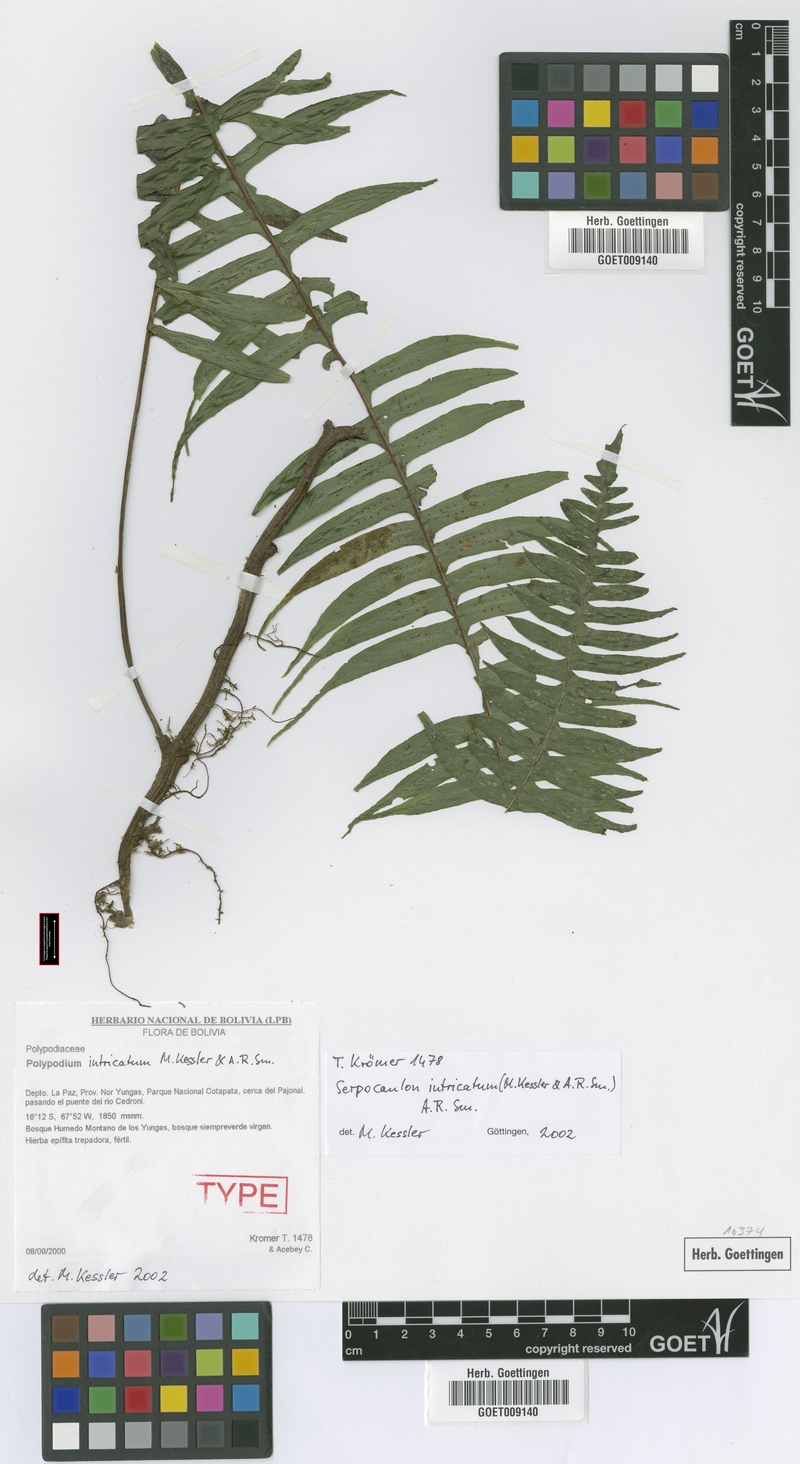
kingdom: Plantae
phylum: Tracheophyta
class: Polypodiopsida
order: Polypodiales
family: Polypodiaceae
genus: Serpocaulon
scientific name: Serpocaulon intricatum
